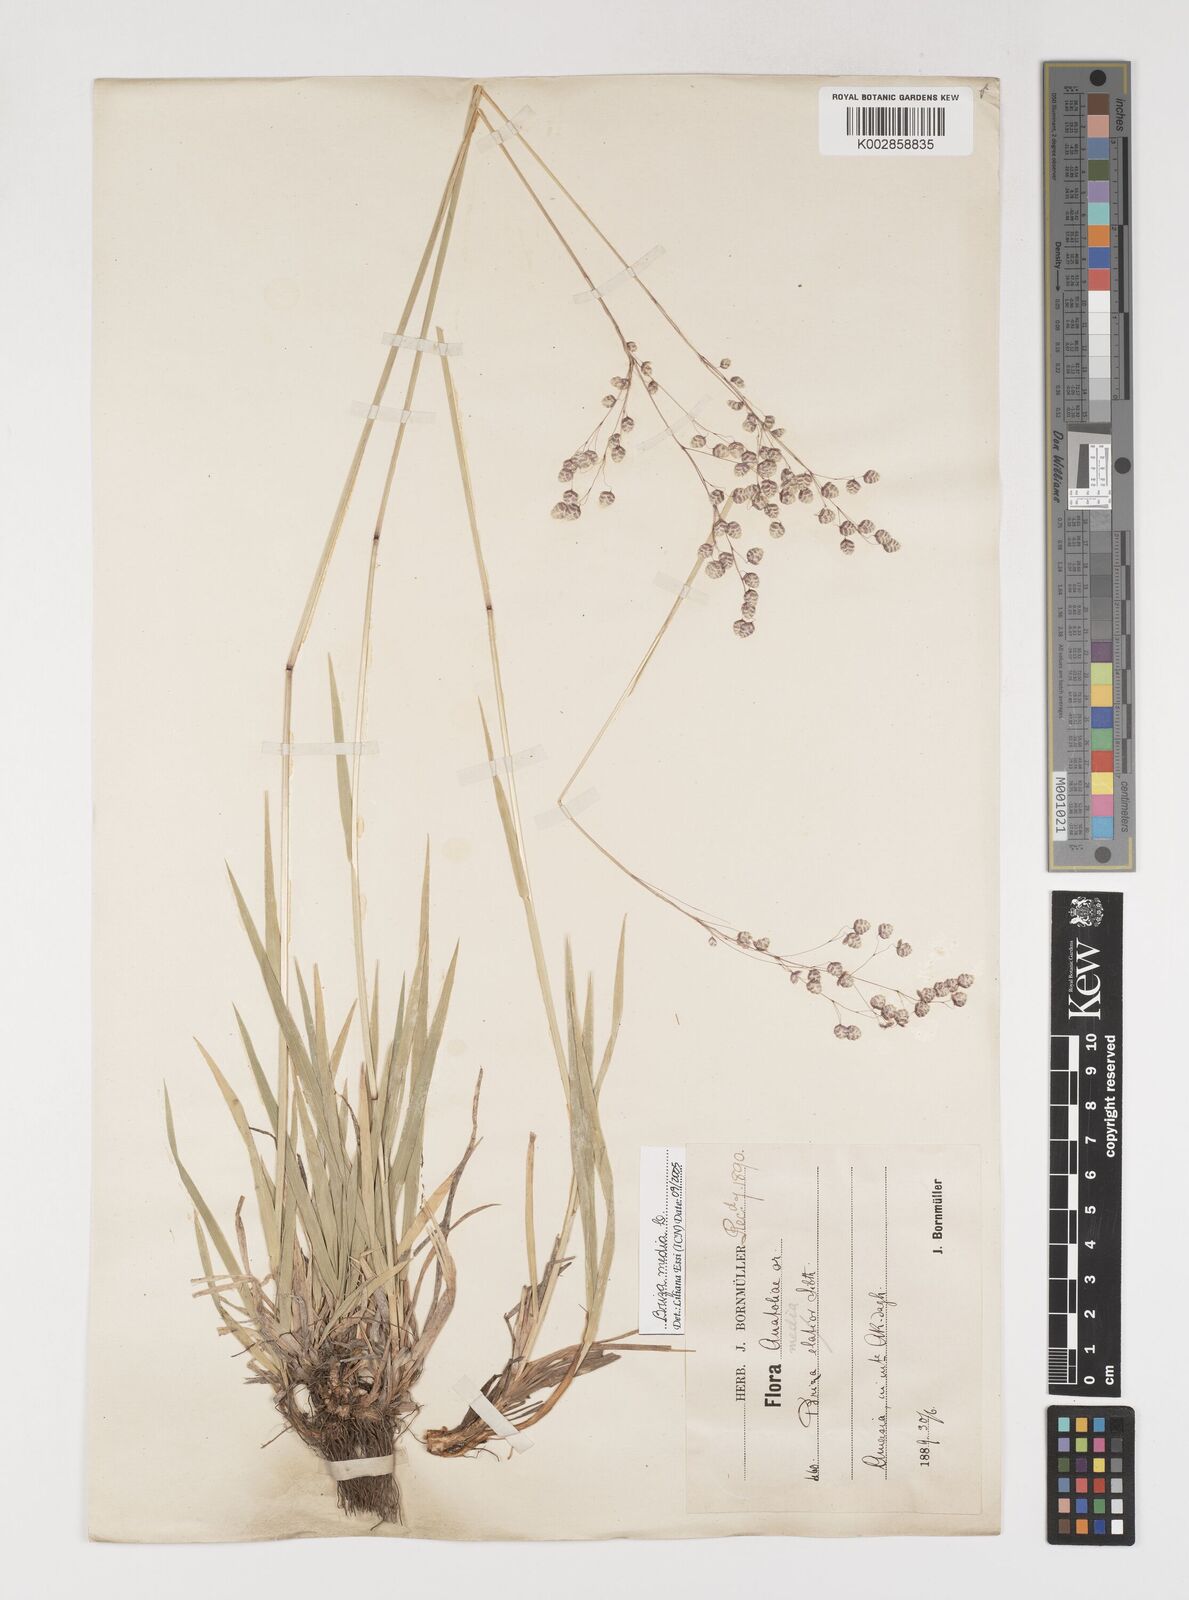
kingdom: Plantae
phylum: Tracheophyta
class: Liliopsida
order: Poales
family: Poaceae
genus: Briza
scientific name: Briza media
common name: Quaking grass
